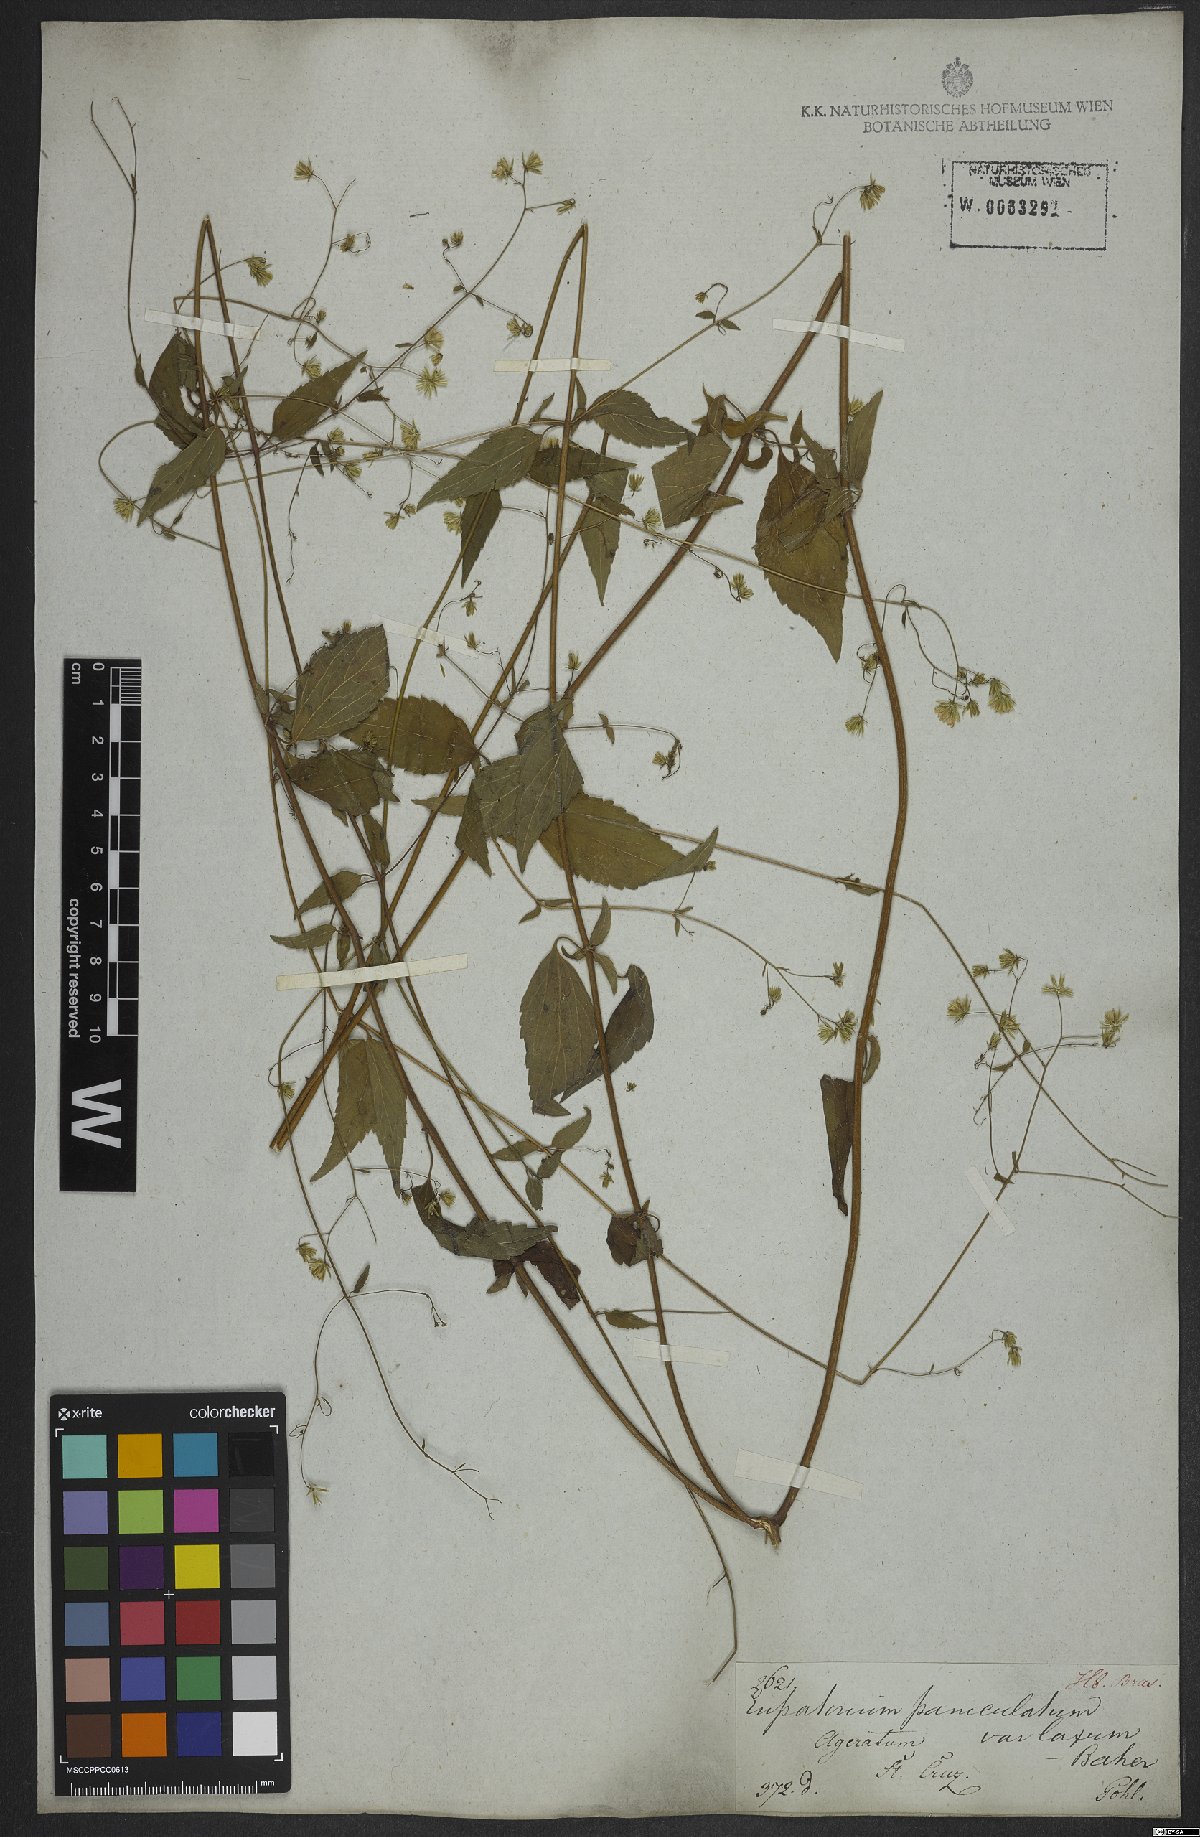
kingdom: Plantae
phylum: Tracheophyta
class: Magnoliopsida
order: Asterales
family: Asteraceae
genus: Fleischmannia
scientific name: Fleischmannia microstemon
